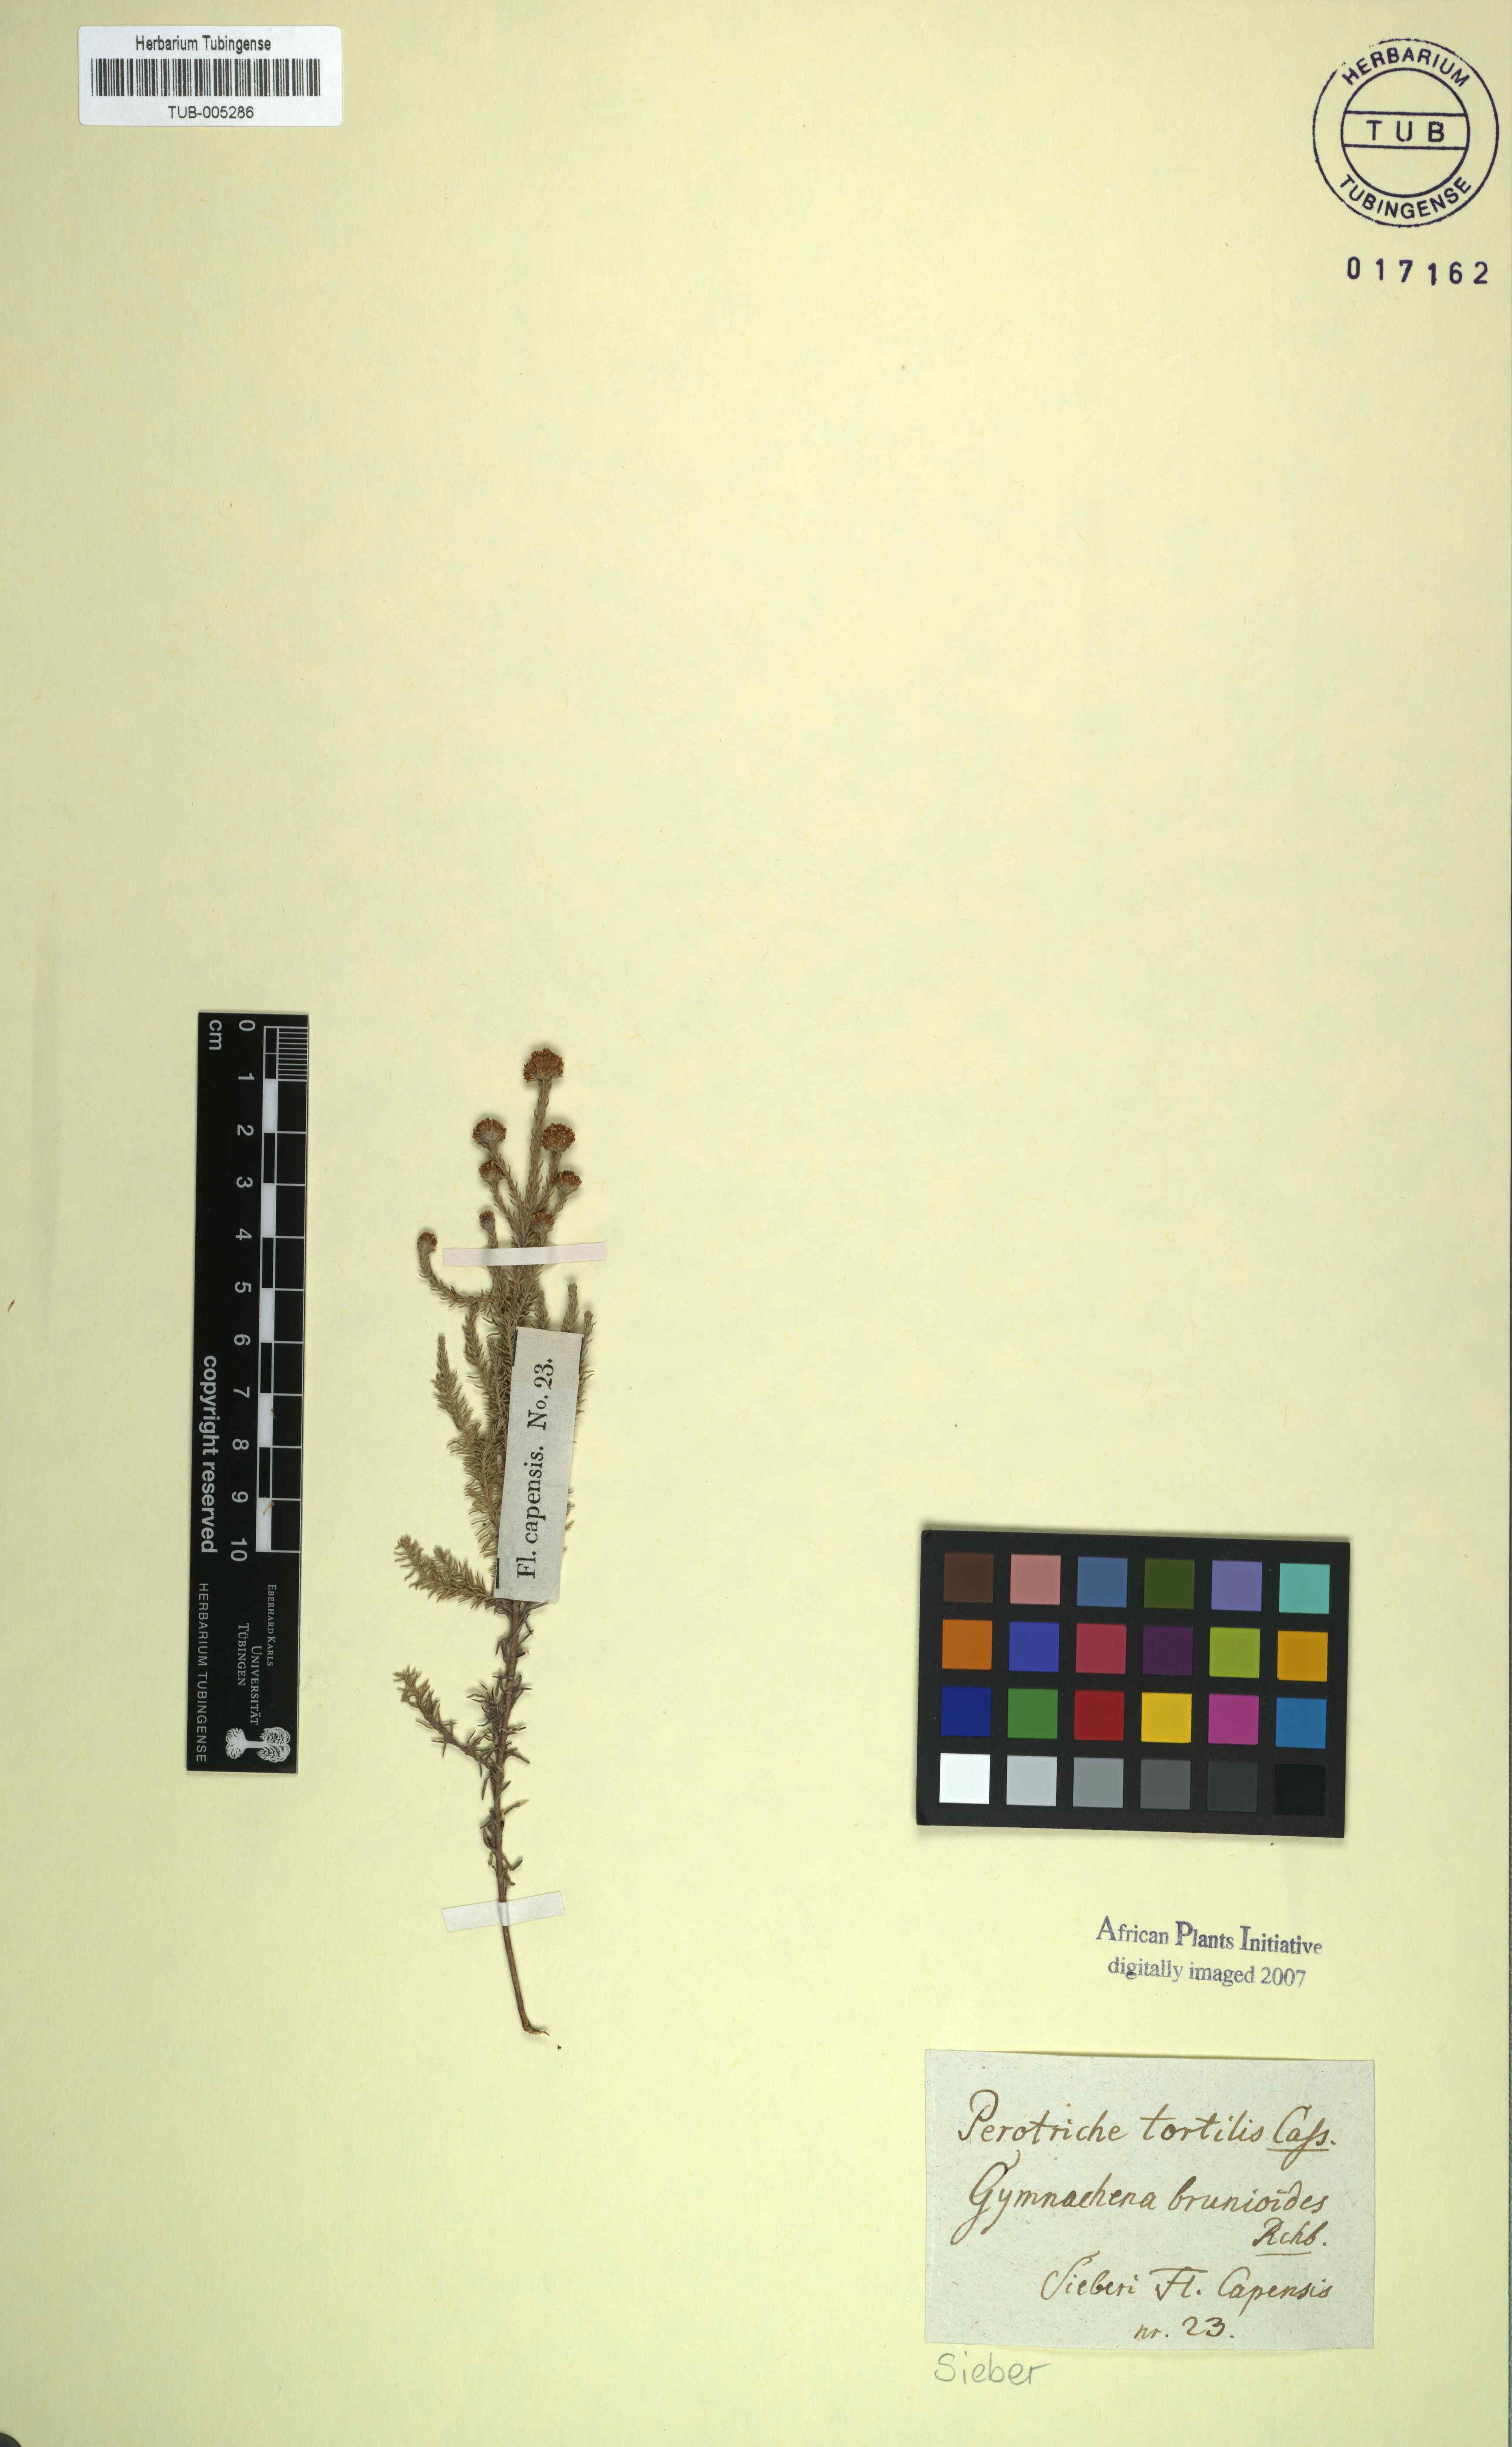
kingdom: Plantae
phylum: Tracheophyta
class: Magnoliopsida
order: Asterales
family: Asteraceae
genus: Stoebe
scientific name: Stoebe capitata
